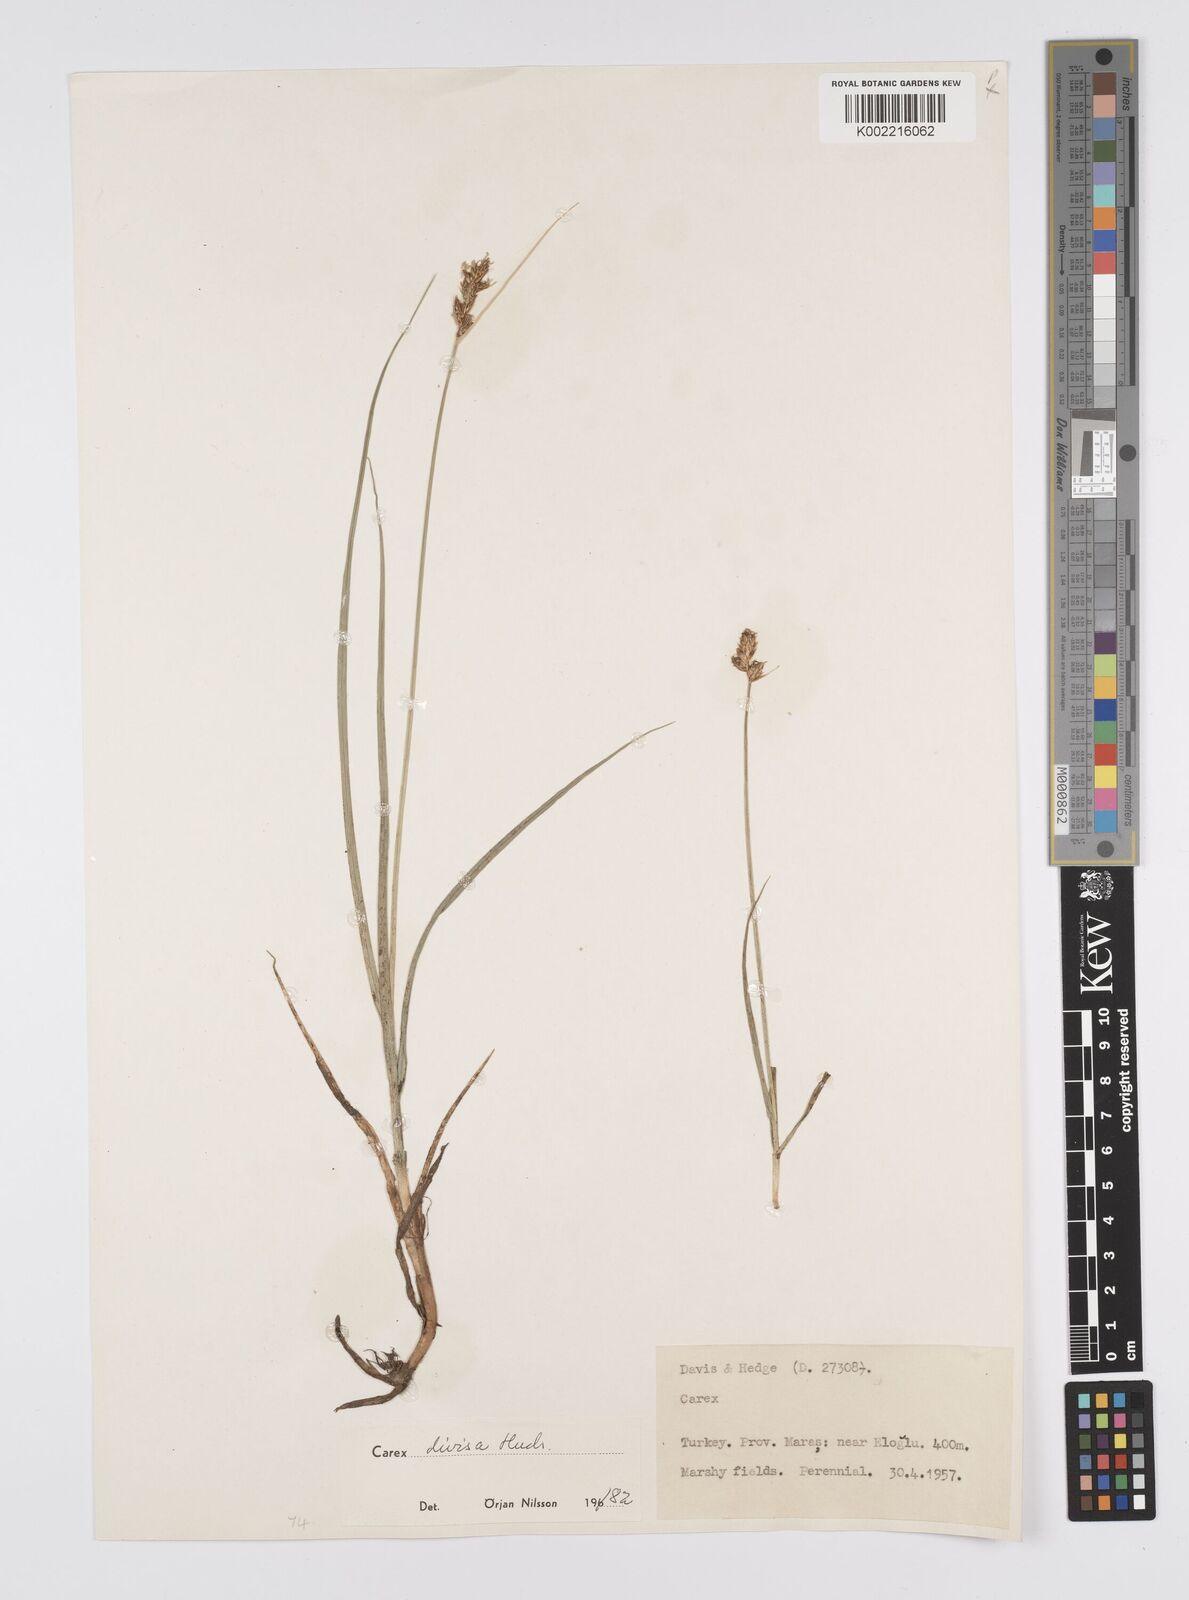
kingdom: Plantae
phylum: Tracheophyta
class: Liliopsida
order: Poales
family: Cyperaceae
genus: Carex
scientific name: Carex divisa
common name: Divided sedge
